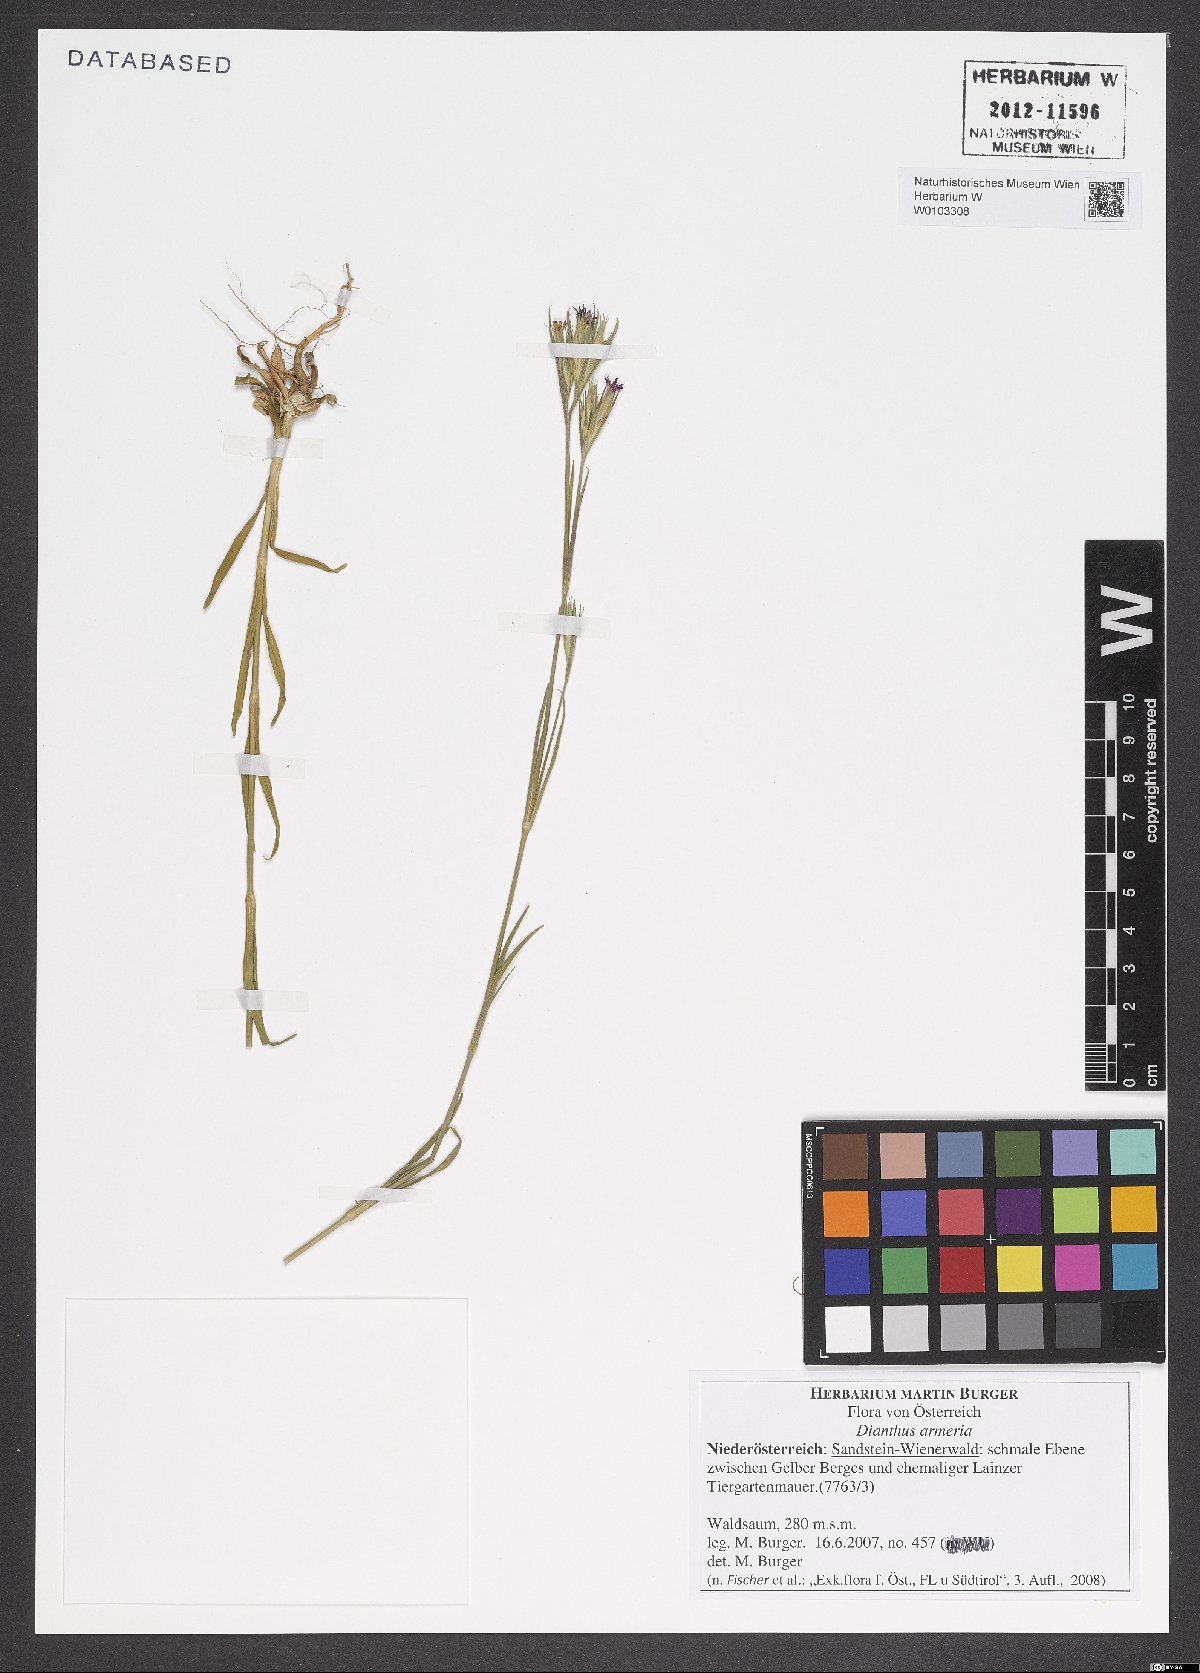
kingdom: Plantae
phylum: Tracheophyta
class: Magnoliopsida
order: Caryophyllales
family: Caryophyllaceae
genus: Dianthus
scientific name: Dianthus armeria
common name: Deptford pink
